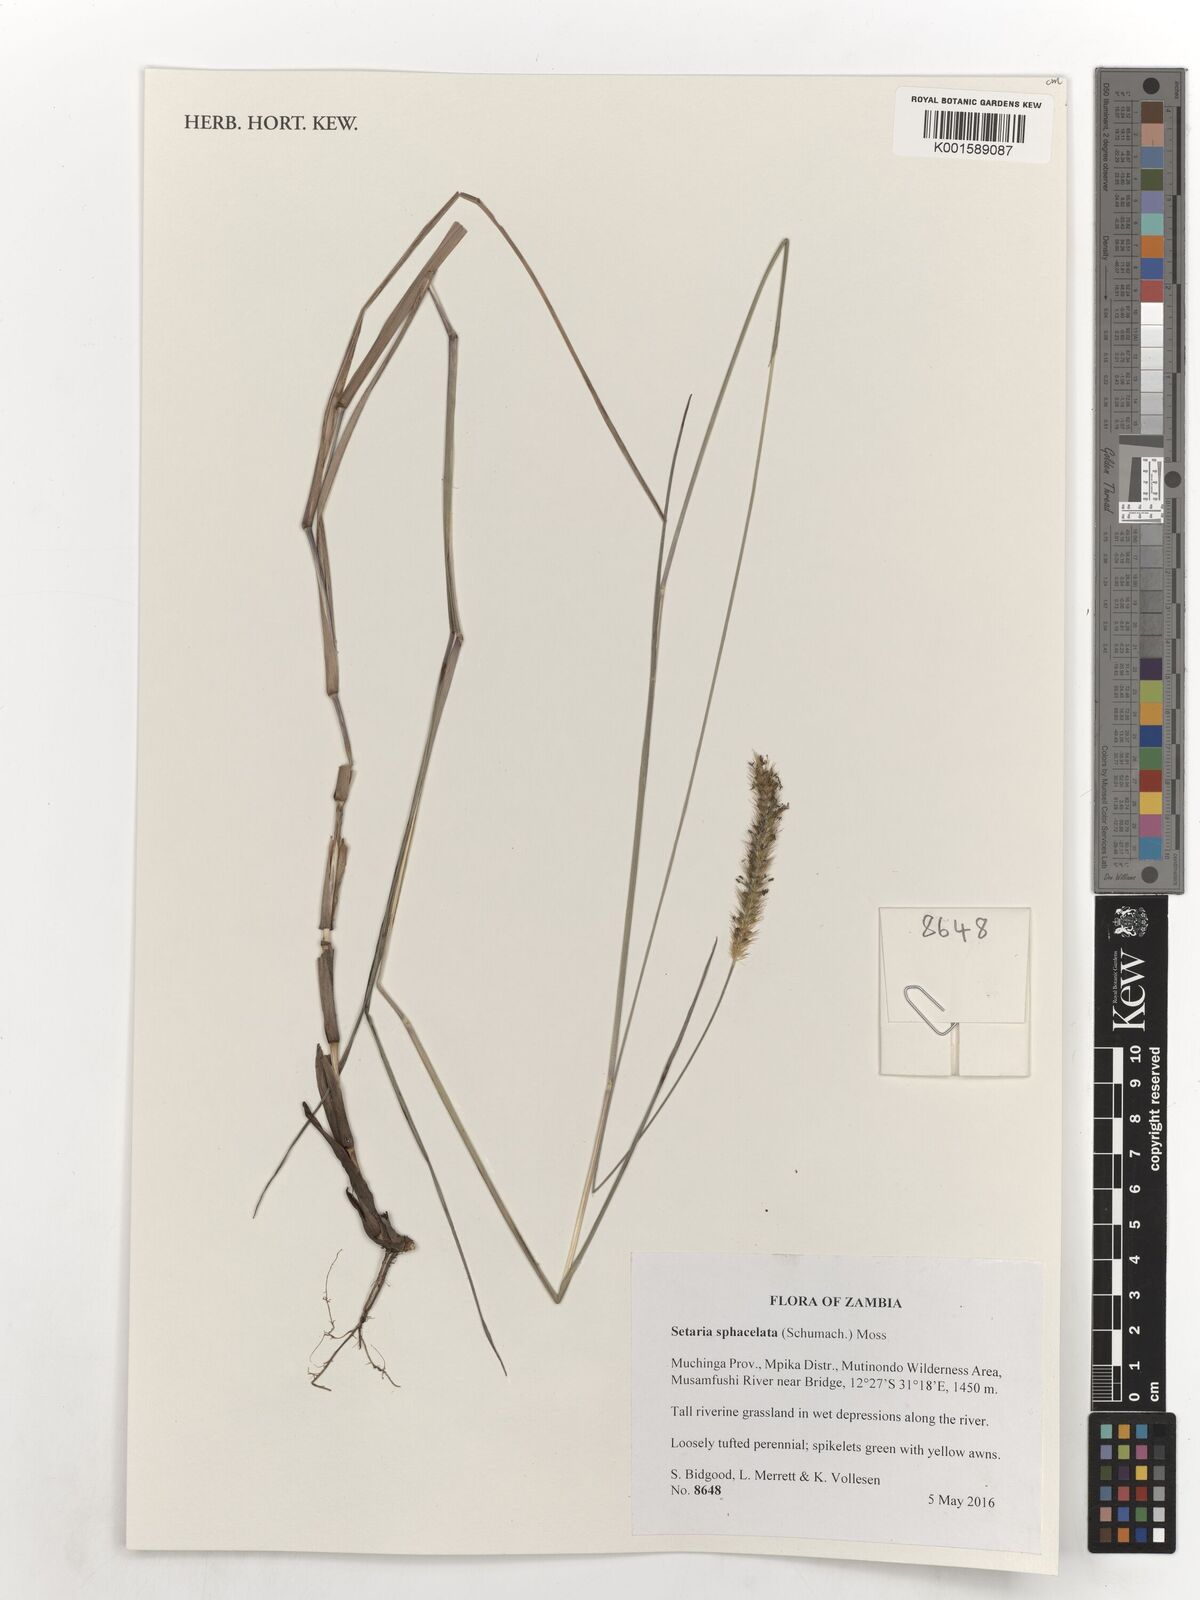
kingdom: Plantae
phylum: Tracheophyta
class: Liliopsida
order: Poales
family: Poaceae
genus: Setaria
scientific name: Setaria sphacelata
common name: African bristlegrass
